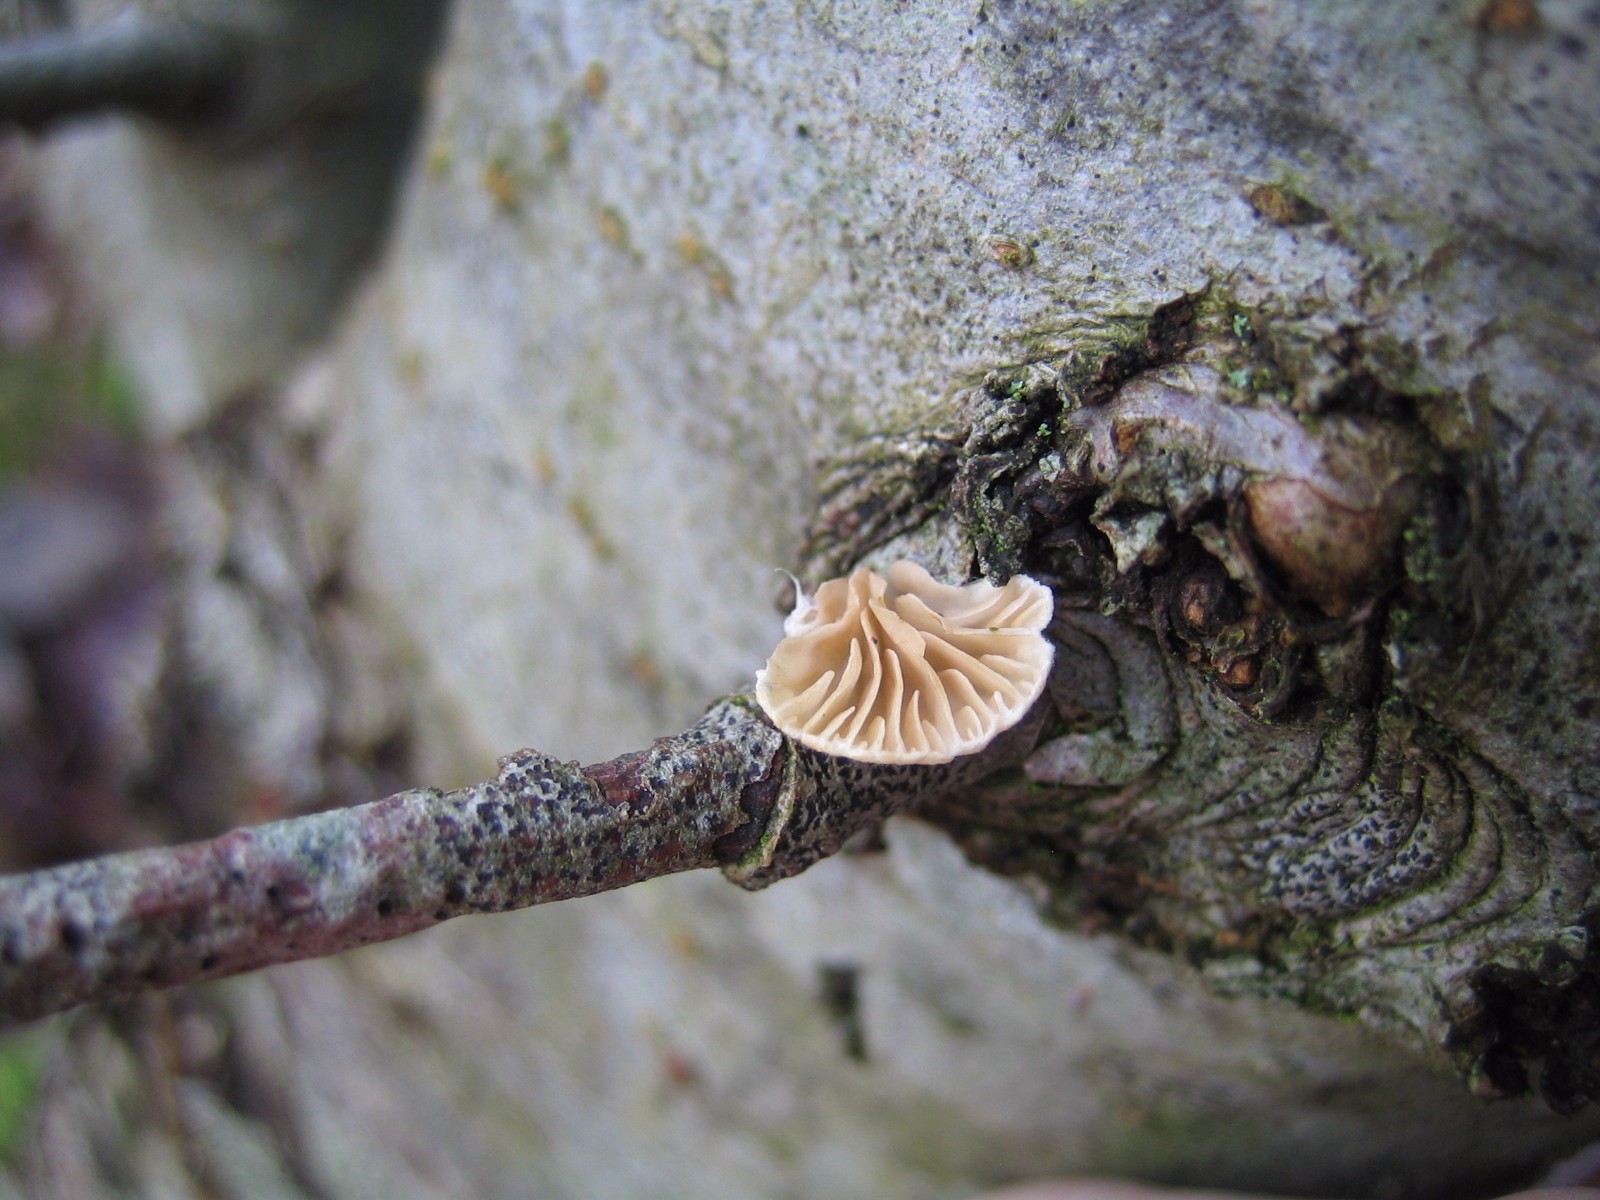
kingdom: Fungi
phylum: Basidiomycota
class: Agaricomycetes
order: Agaricales
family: Crepidotaceae
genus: Crepidotus
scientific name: Crepidotus
